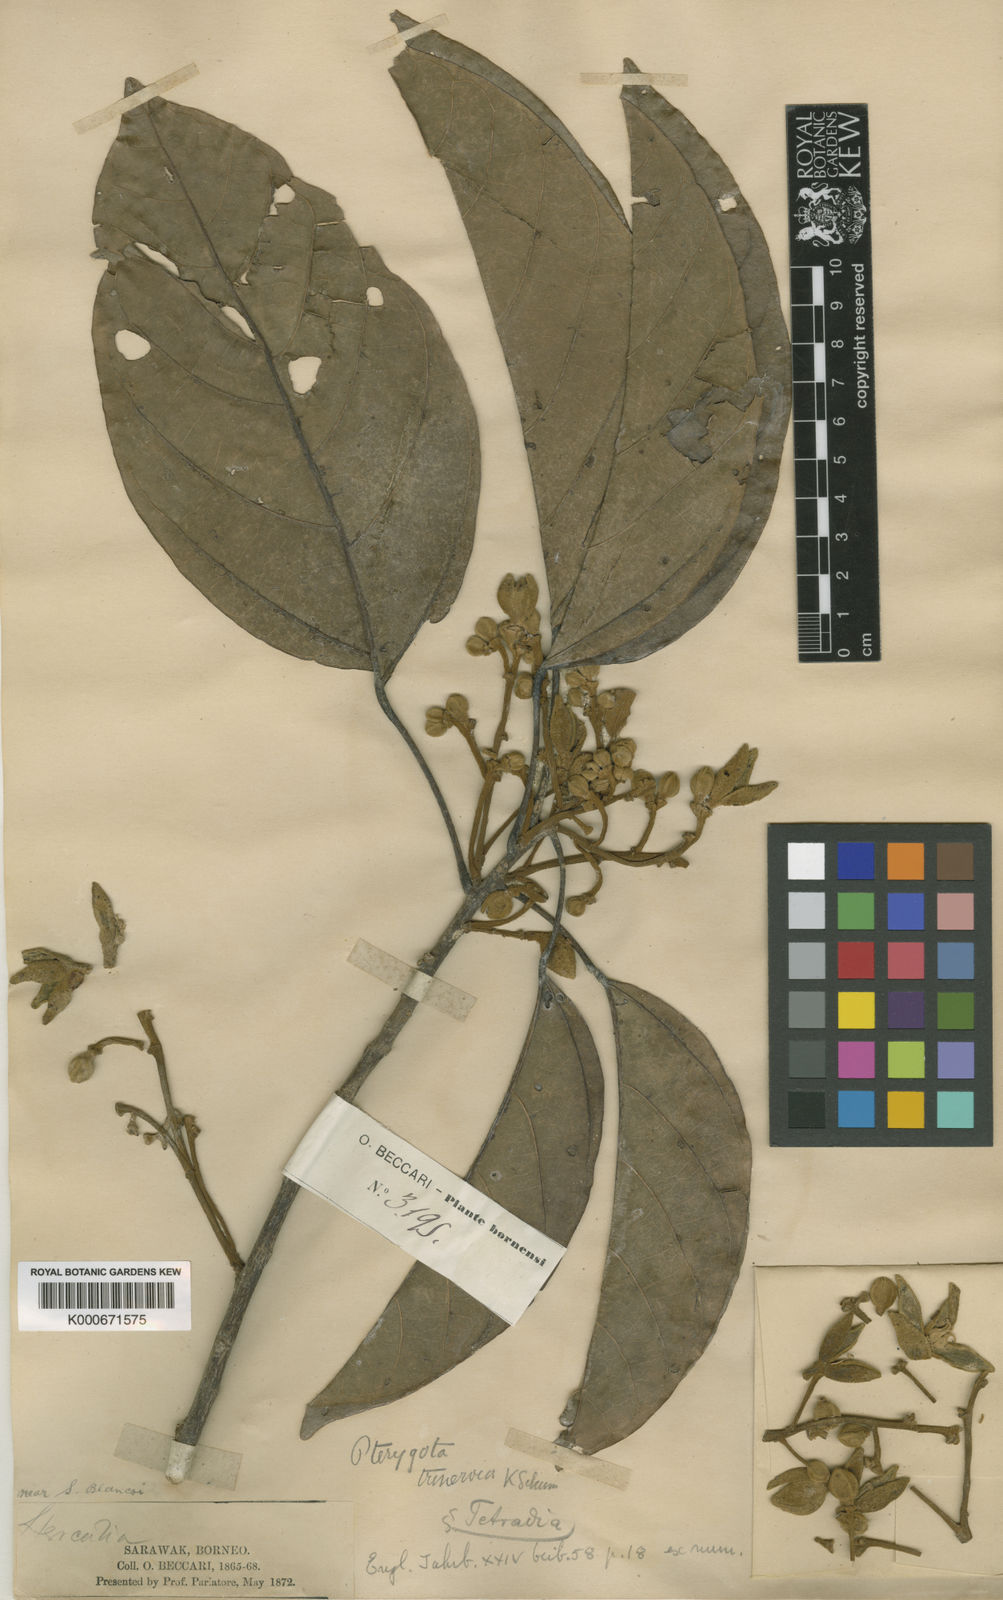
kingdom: Plantae
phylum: Tracheophyta
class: Magnoliopsida
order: Malvales
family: Malvaceae
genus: Pterygota
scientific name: Pterygota trinervia
